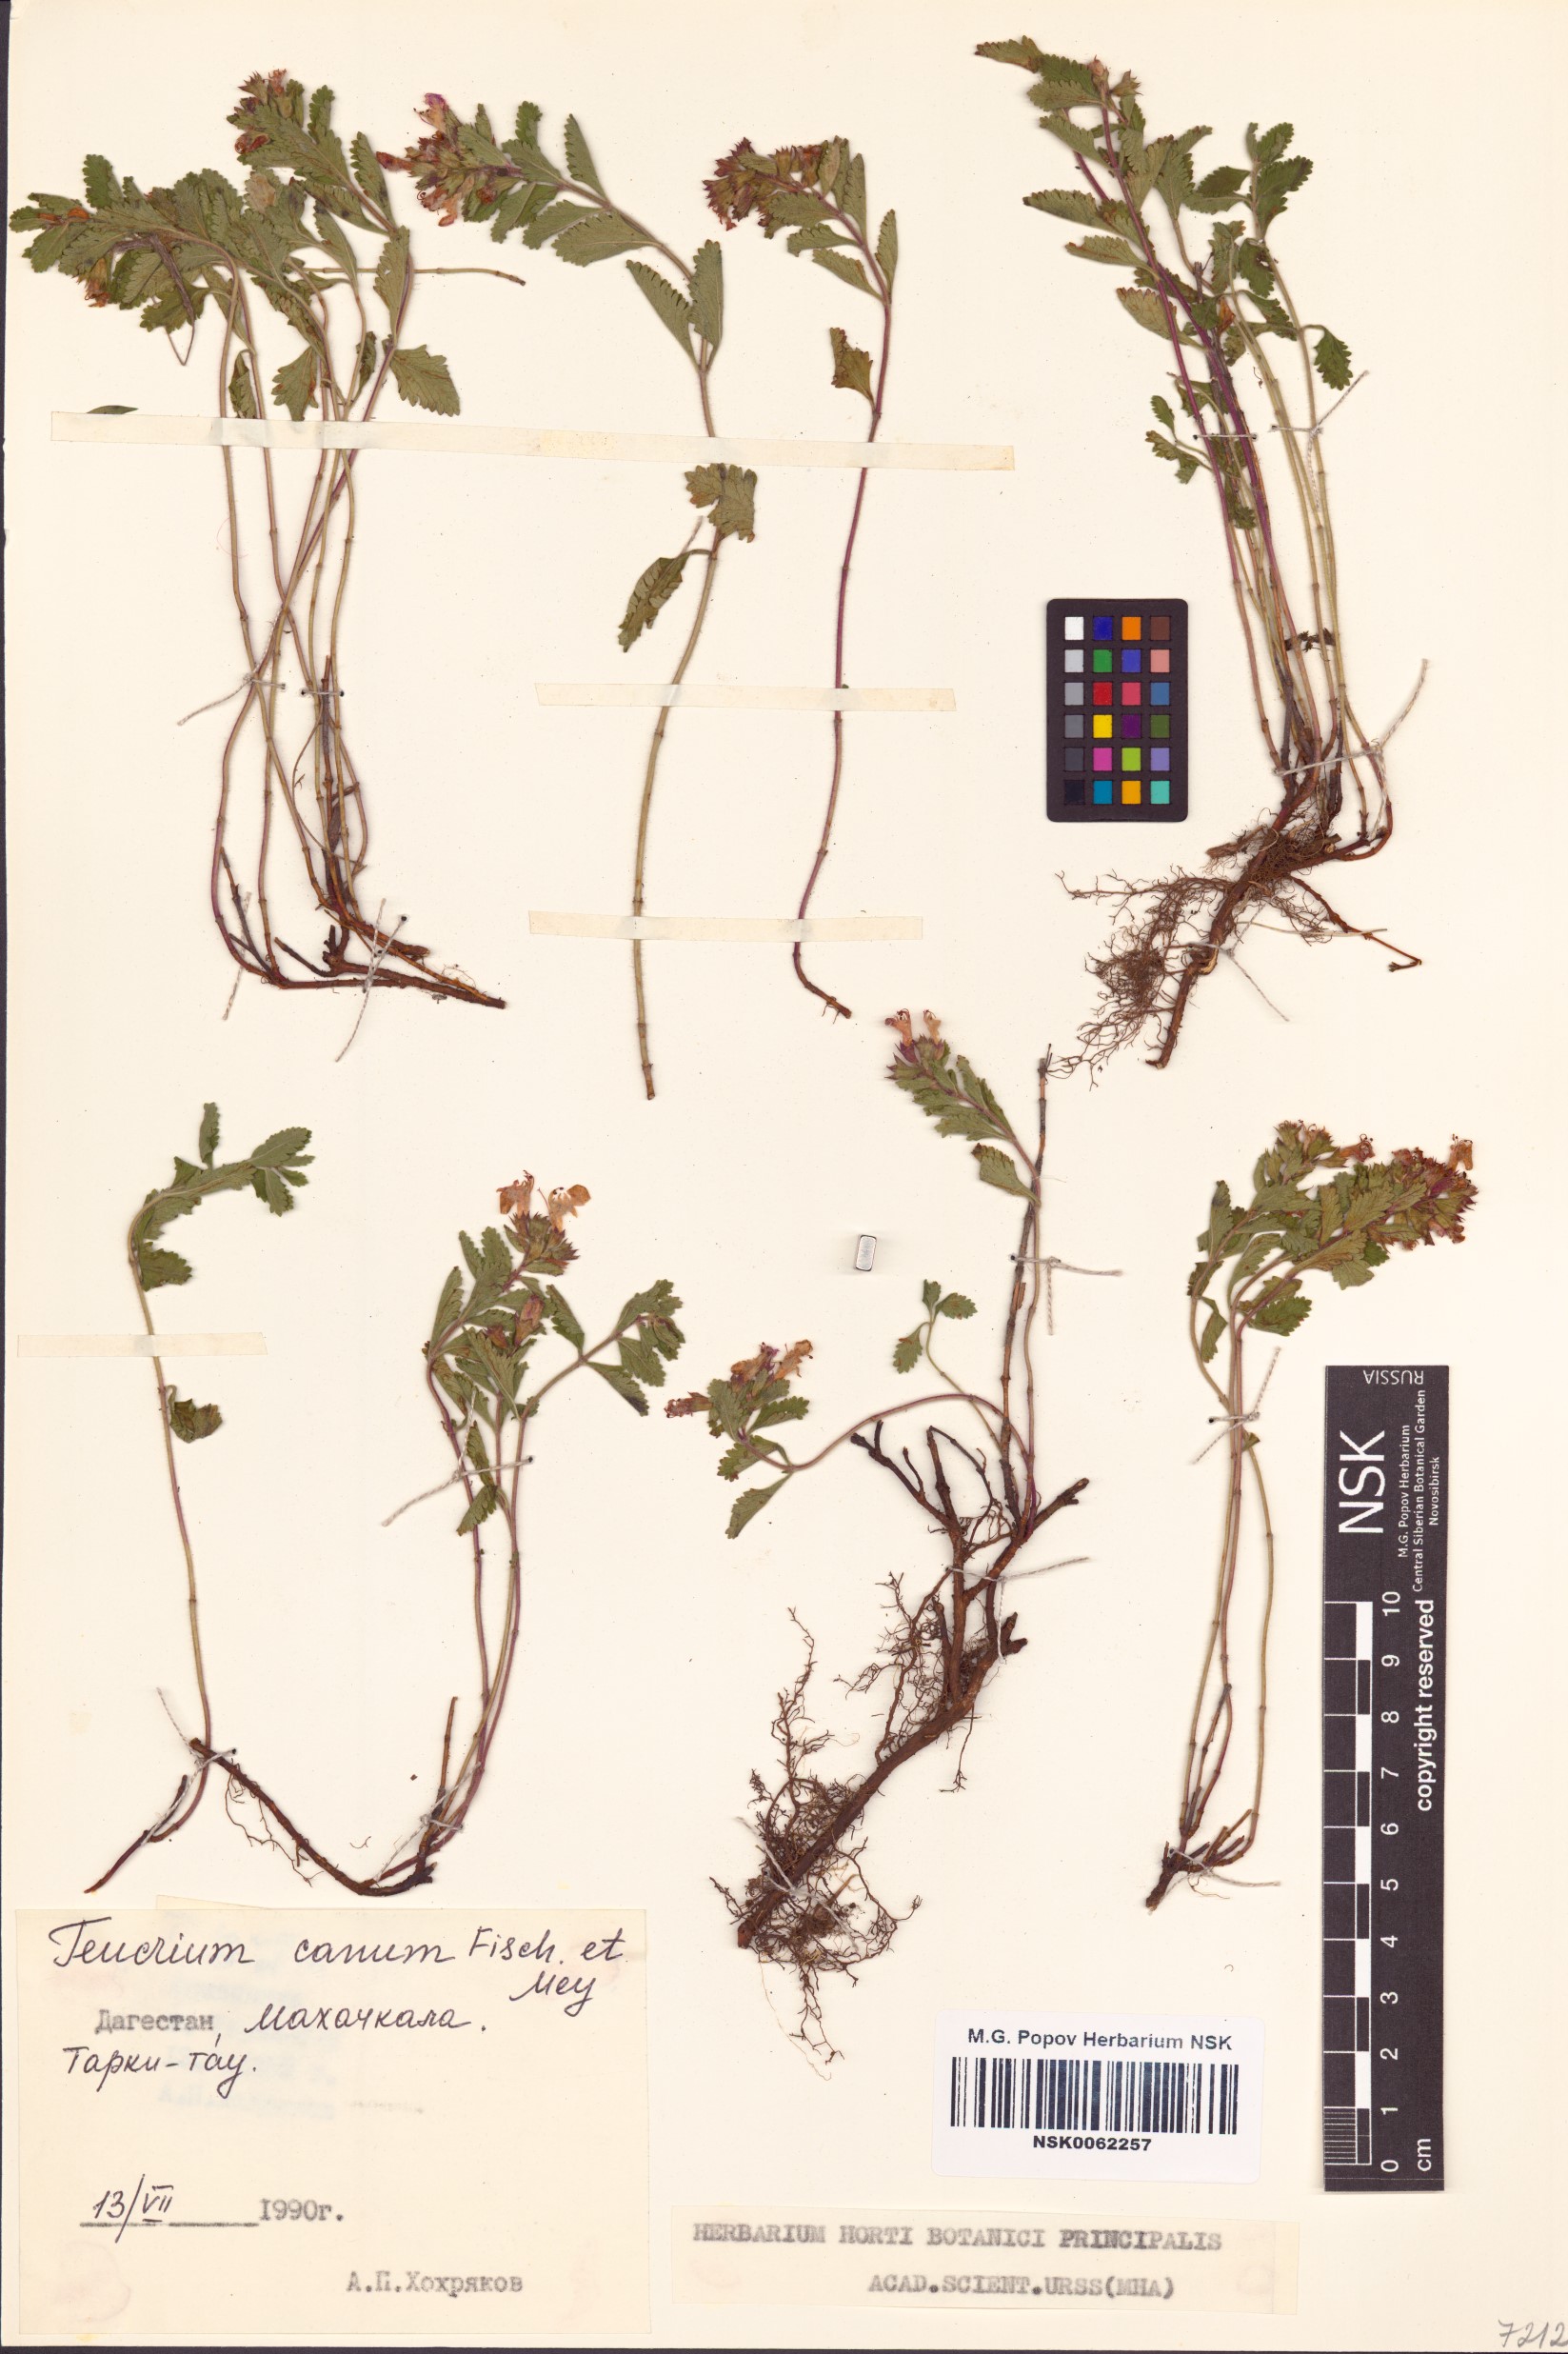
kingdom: Plantae
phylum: Tracheophyta
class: Magnoliopsida
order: Lamiales
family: Lamiaceae
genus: Teucrium
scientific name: Teucrium canum
